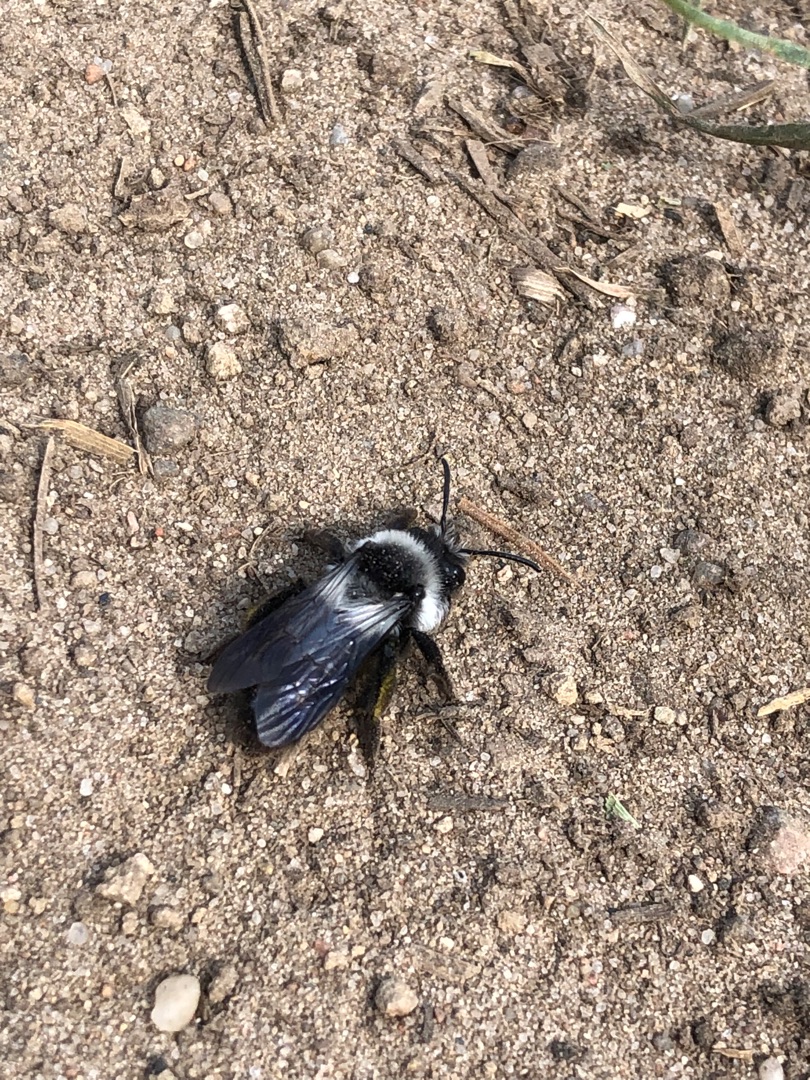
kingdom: Animalia
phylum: Arthropoda
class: Insecta
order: Hymenoptera
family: Andrenidae
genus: Andrena
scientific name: Andrena cineraria
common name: Sorthvid jordbi
